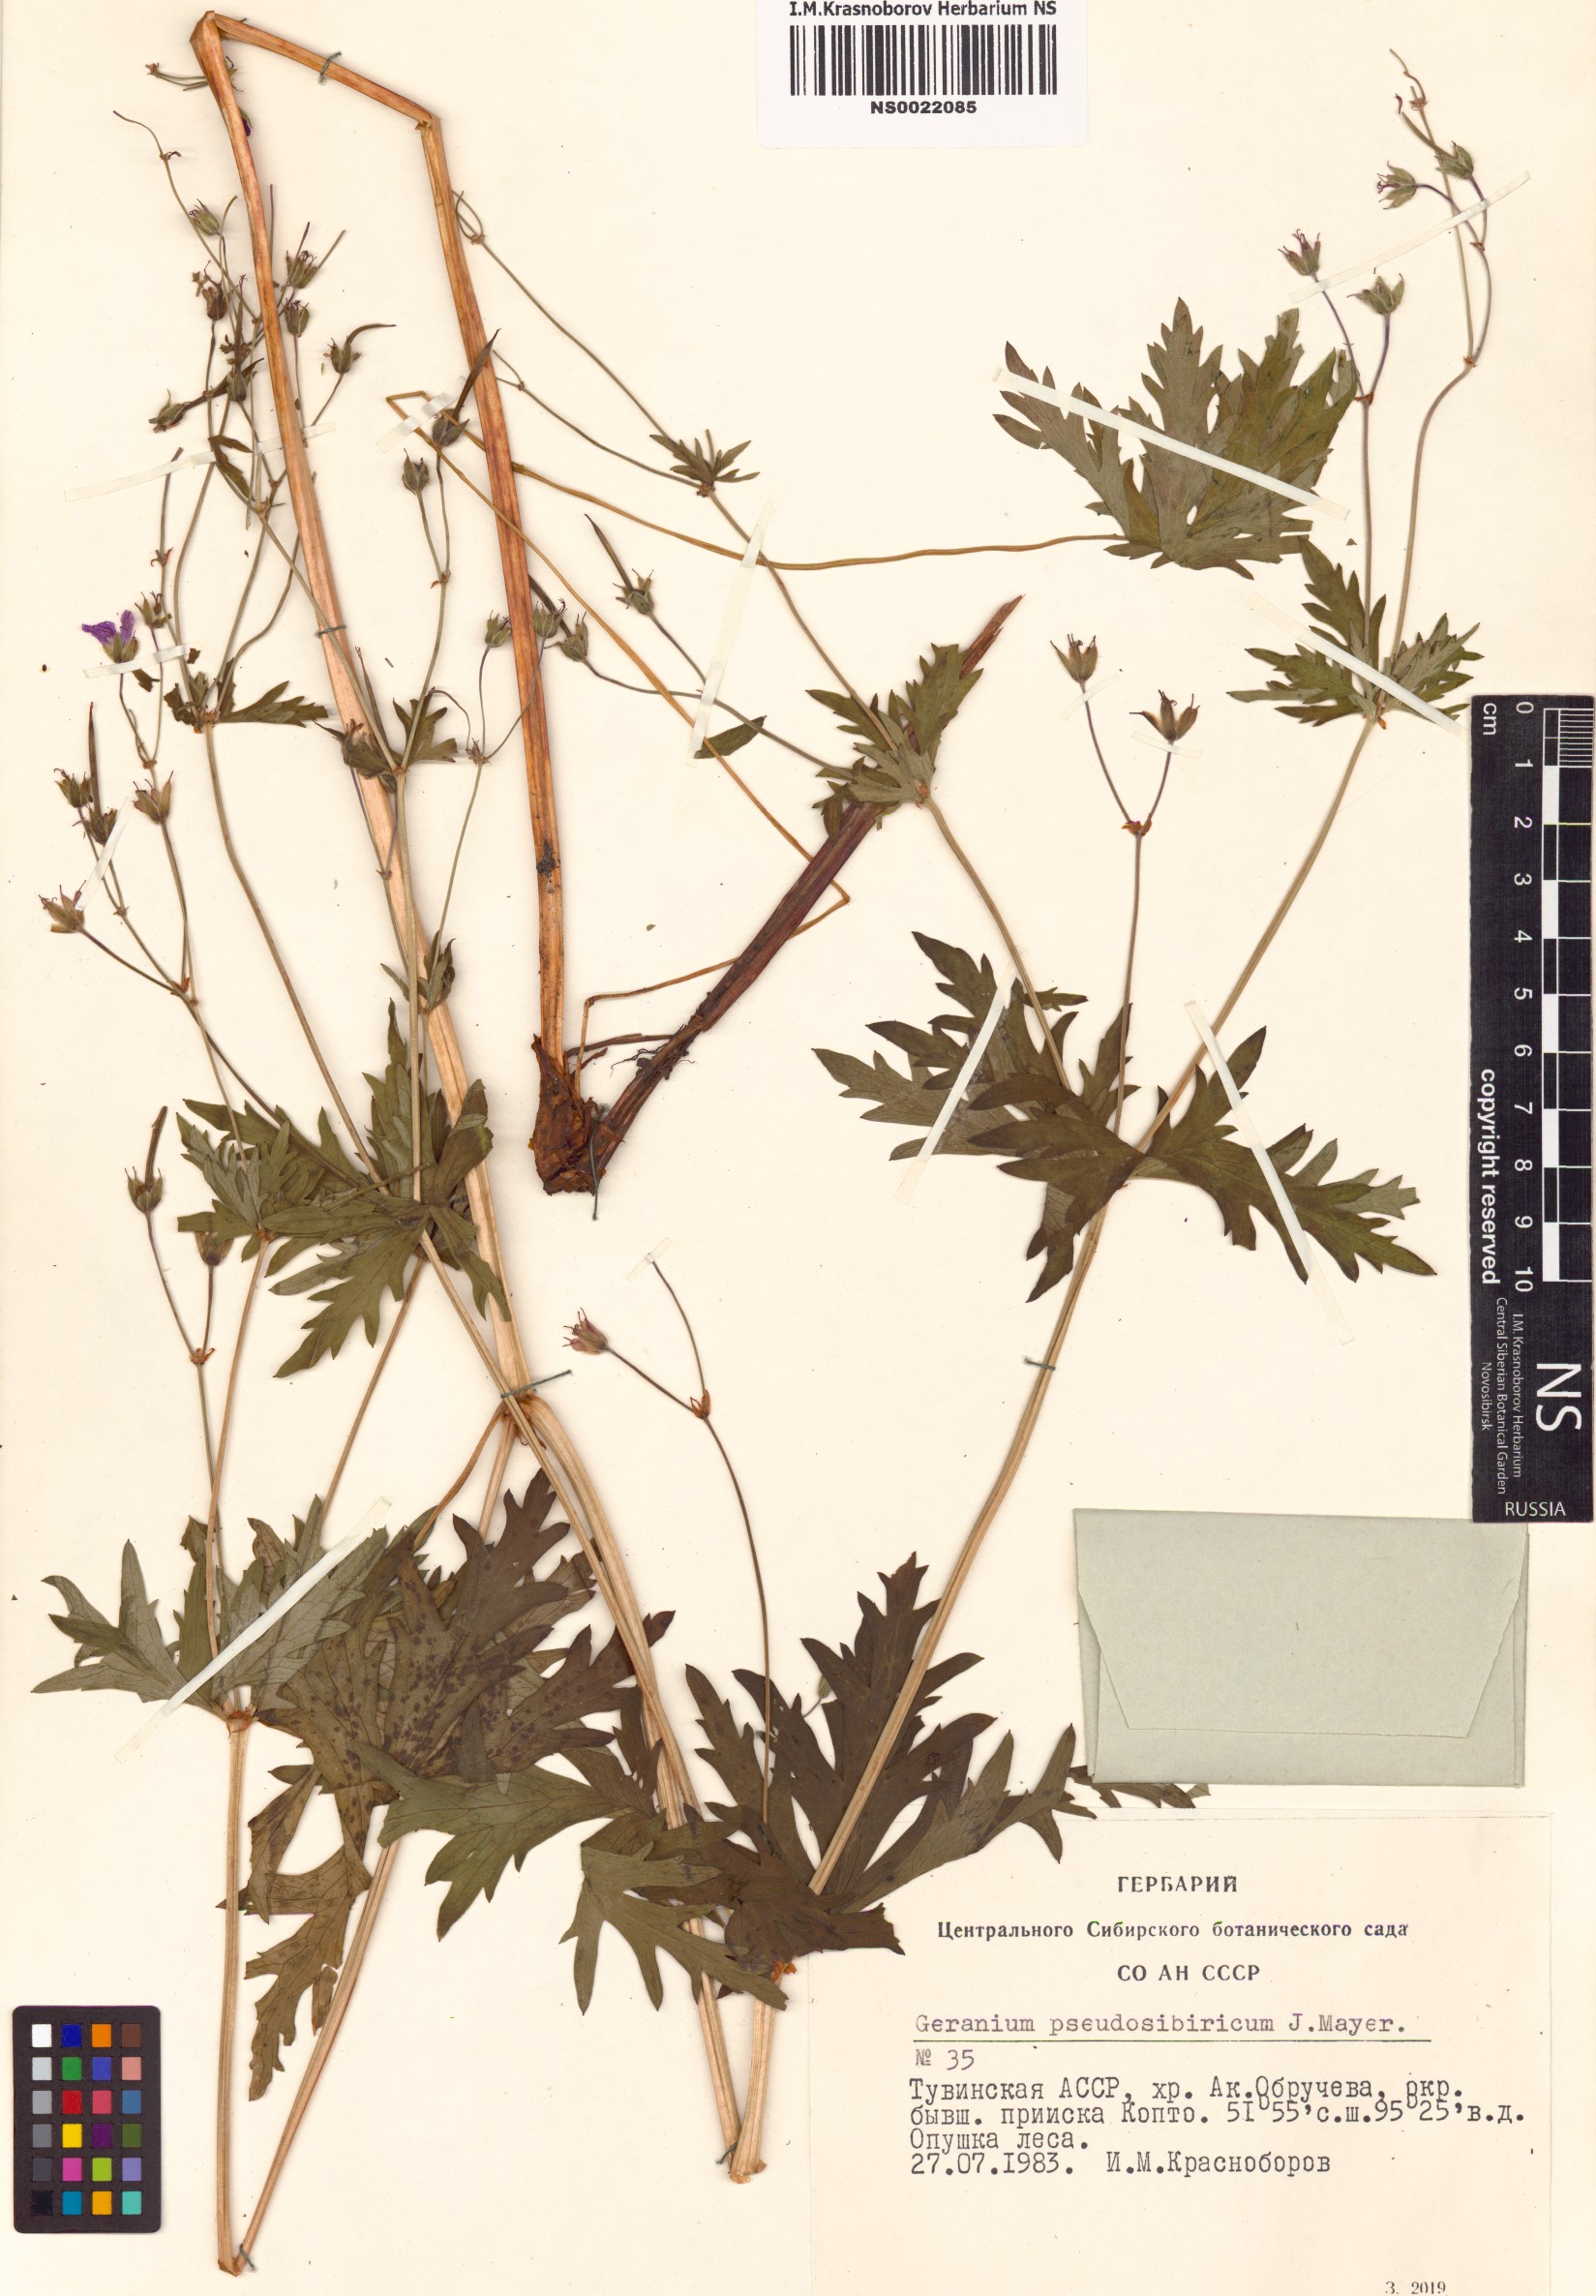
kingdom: Plantae
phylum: Tracheophyta
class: Magnoliopsida
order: Geraniales
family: Geraniaceae
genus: Geranium
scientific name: Geranium pseudosibiricum
